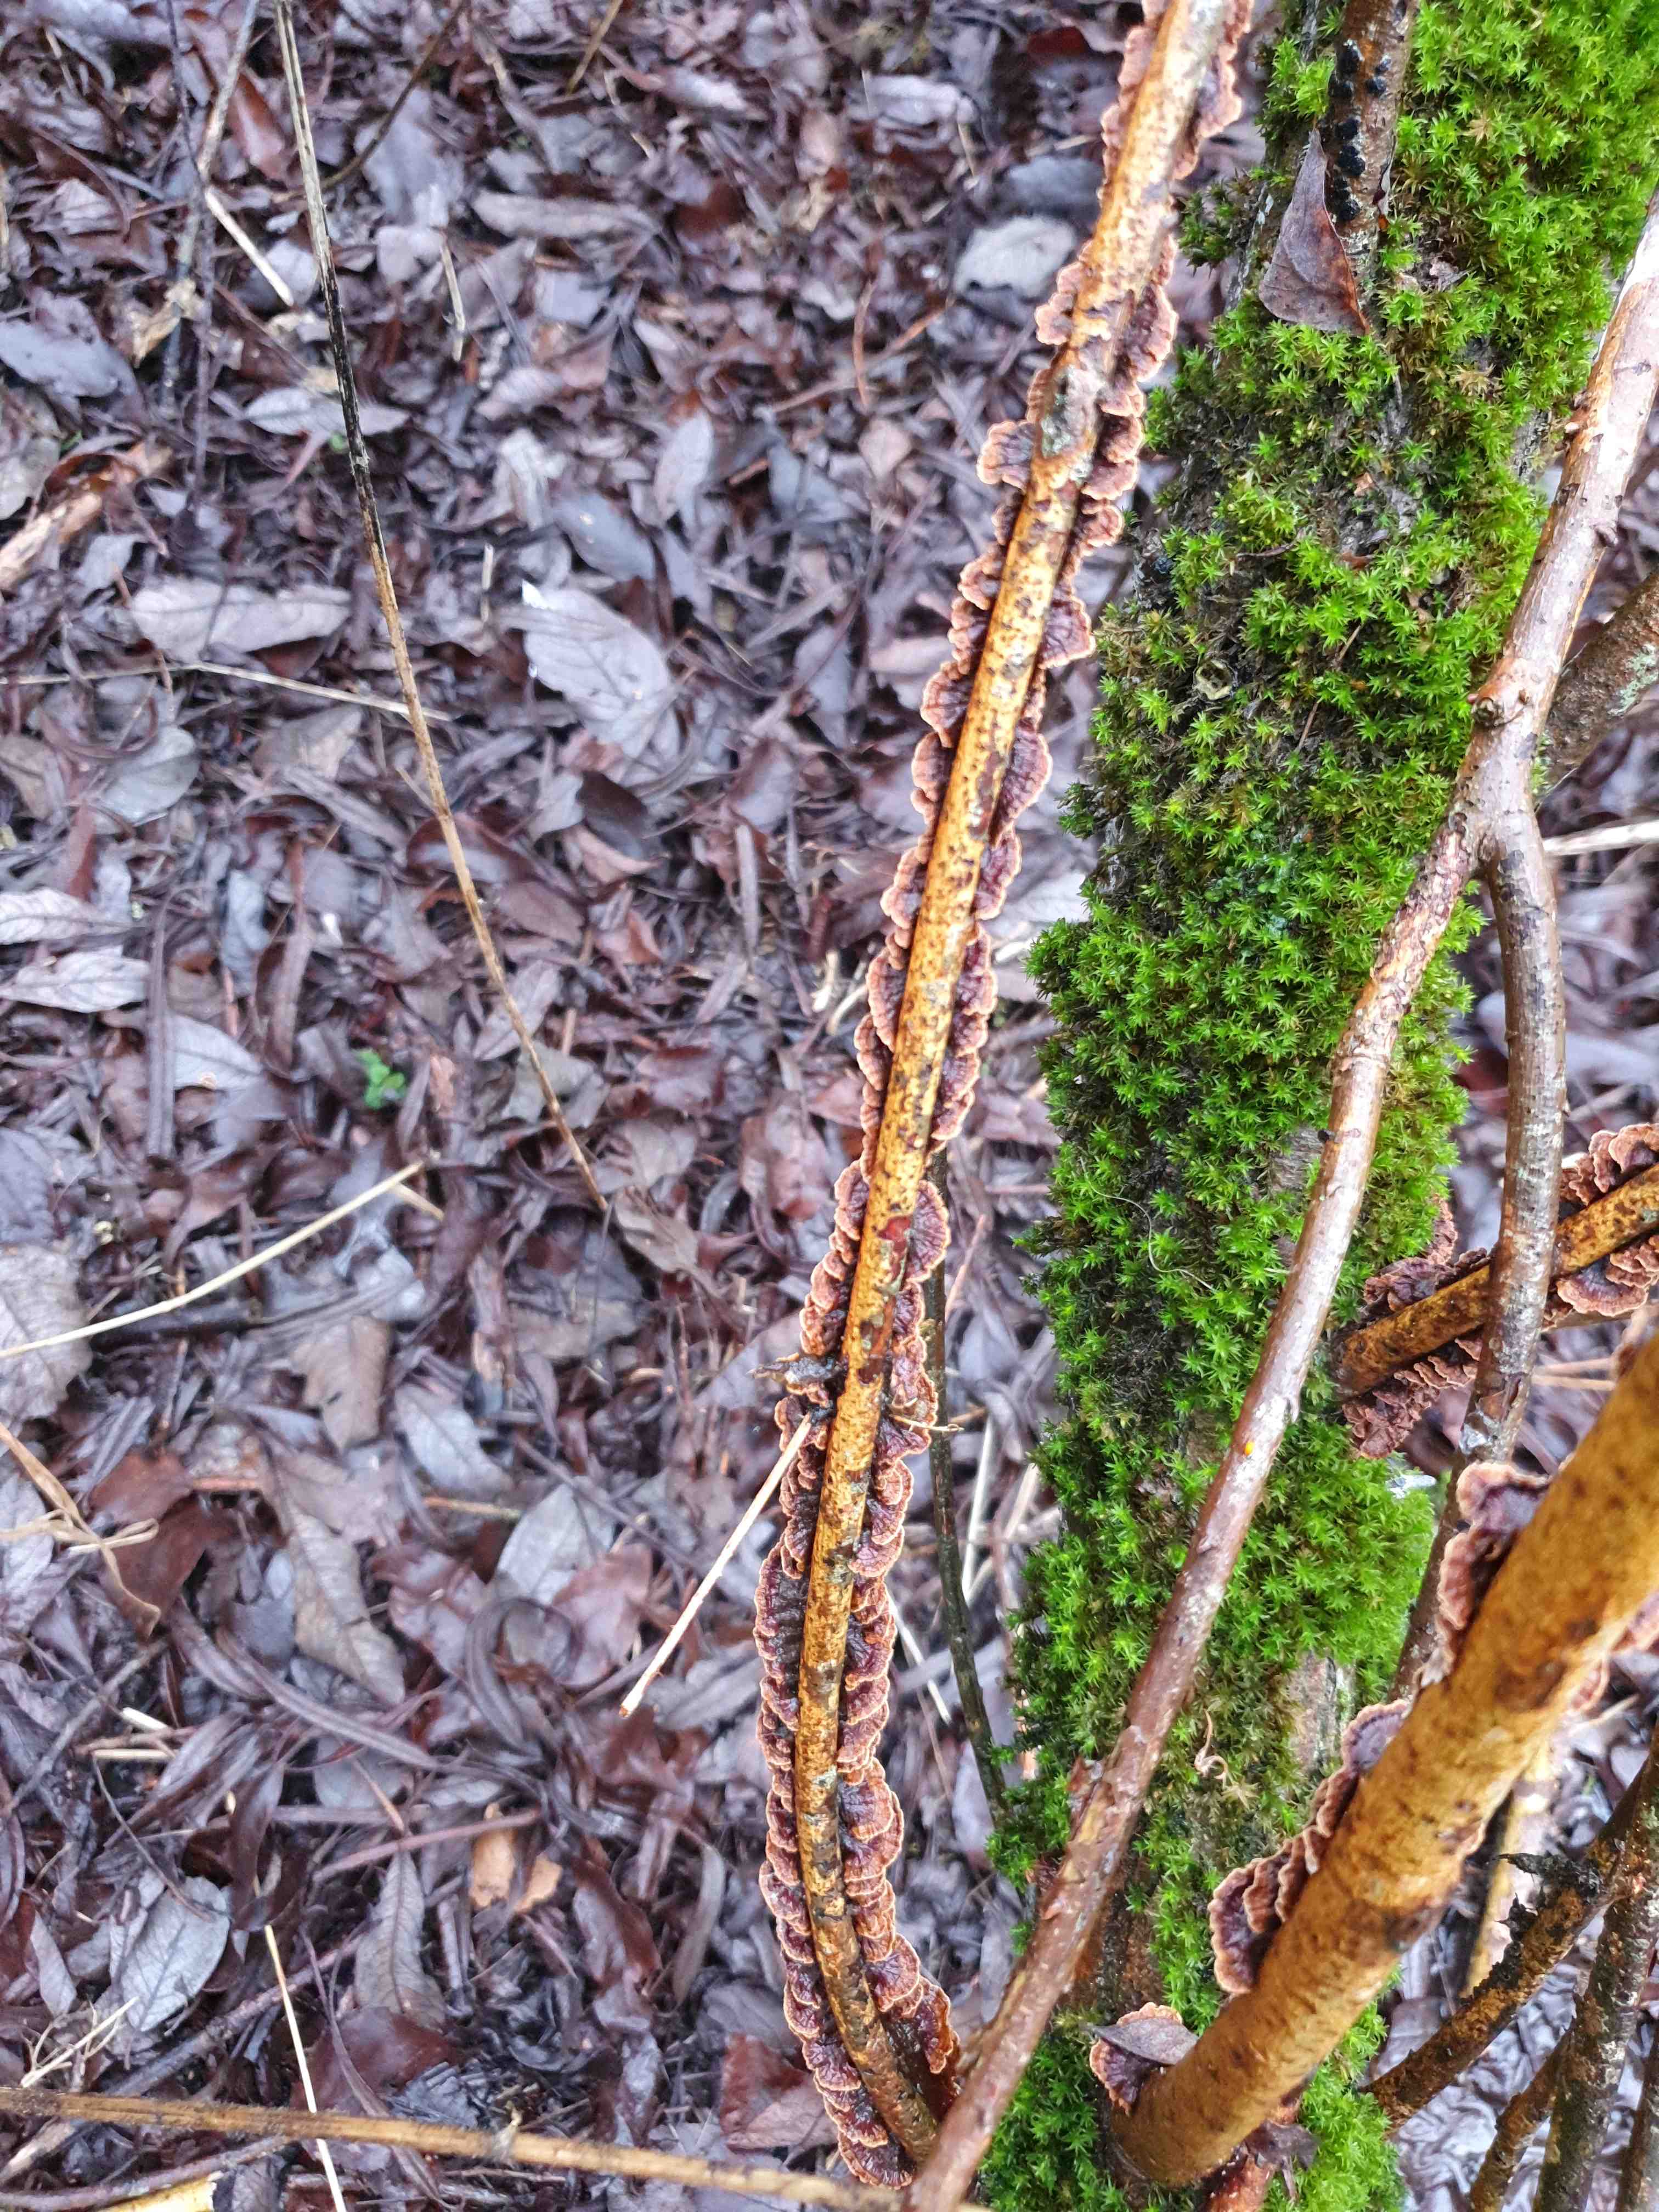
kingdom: Fungi
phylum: Basidiomycota
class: Agaricomycetes
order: Hymenochaetales
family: Hymenochaetaceae
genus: Hydnoporia
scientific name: Hydnoporia tabacina
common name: tobaksbrun ruslædersvamp
